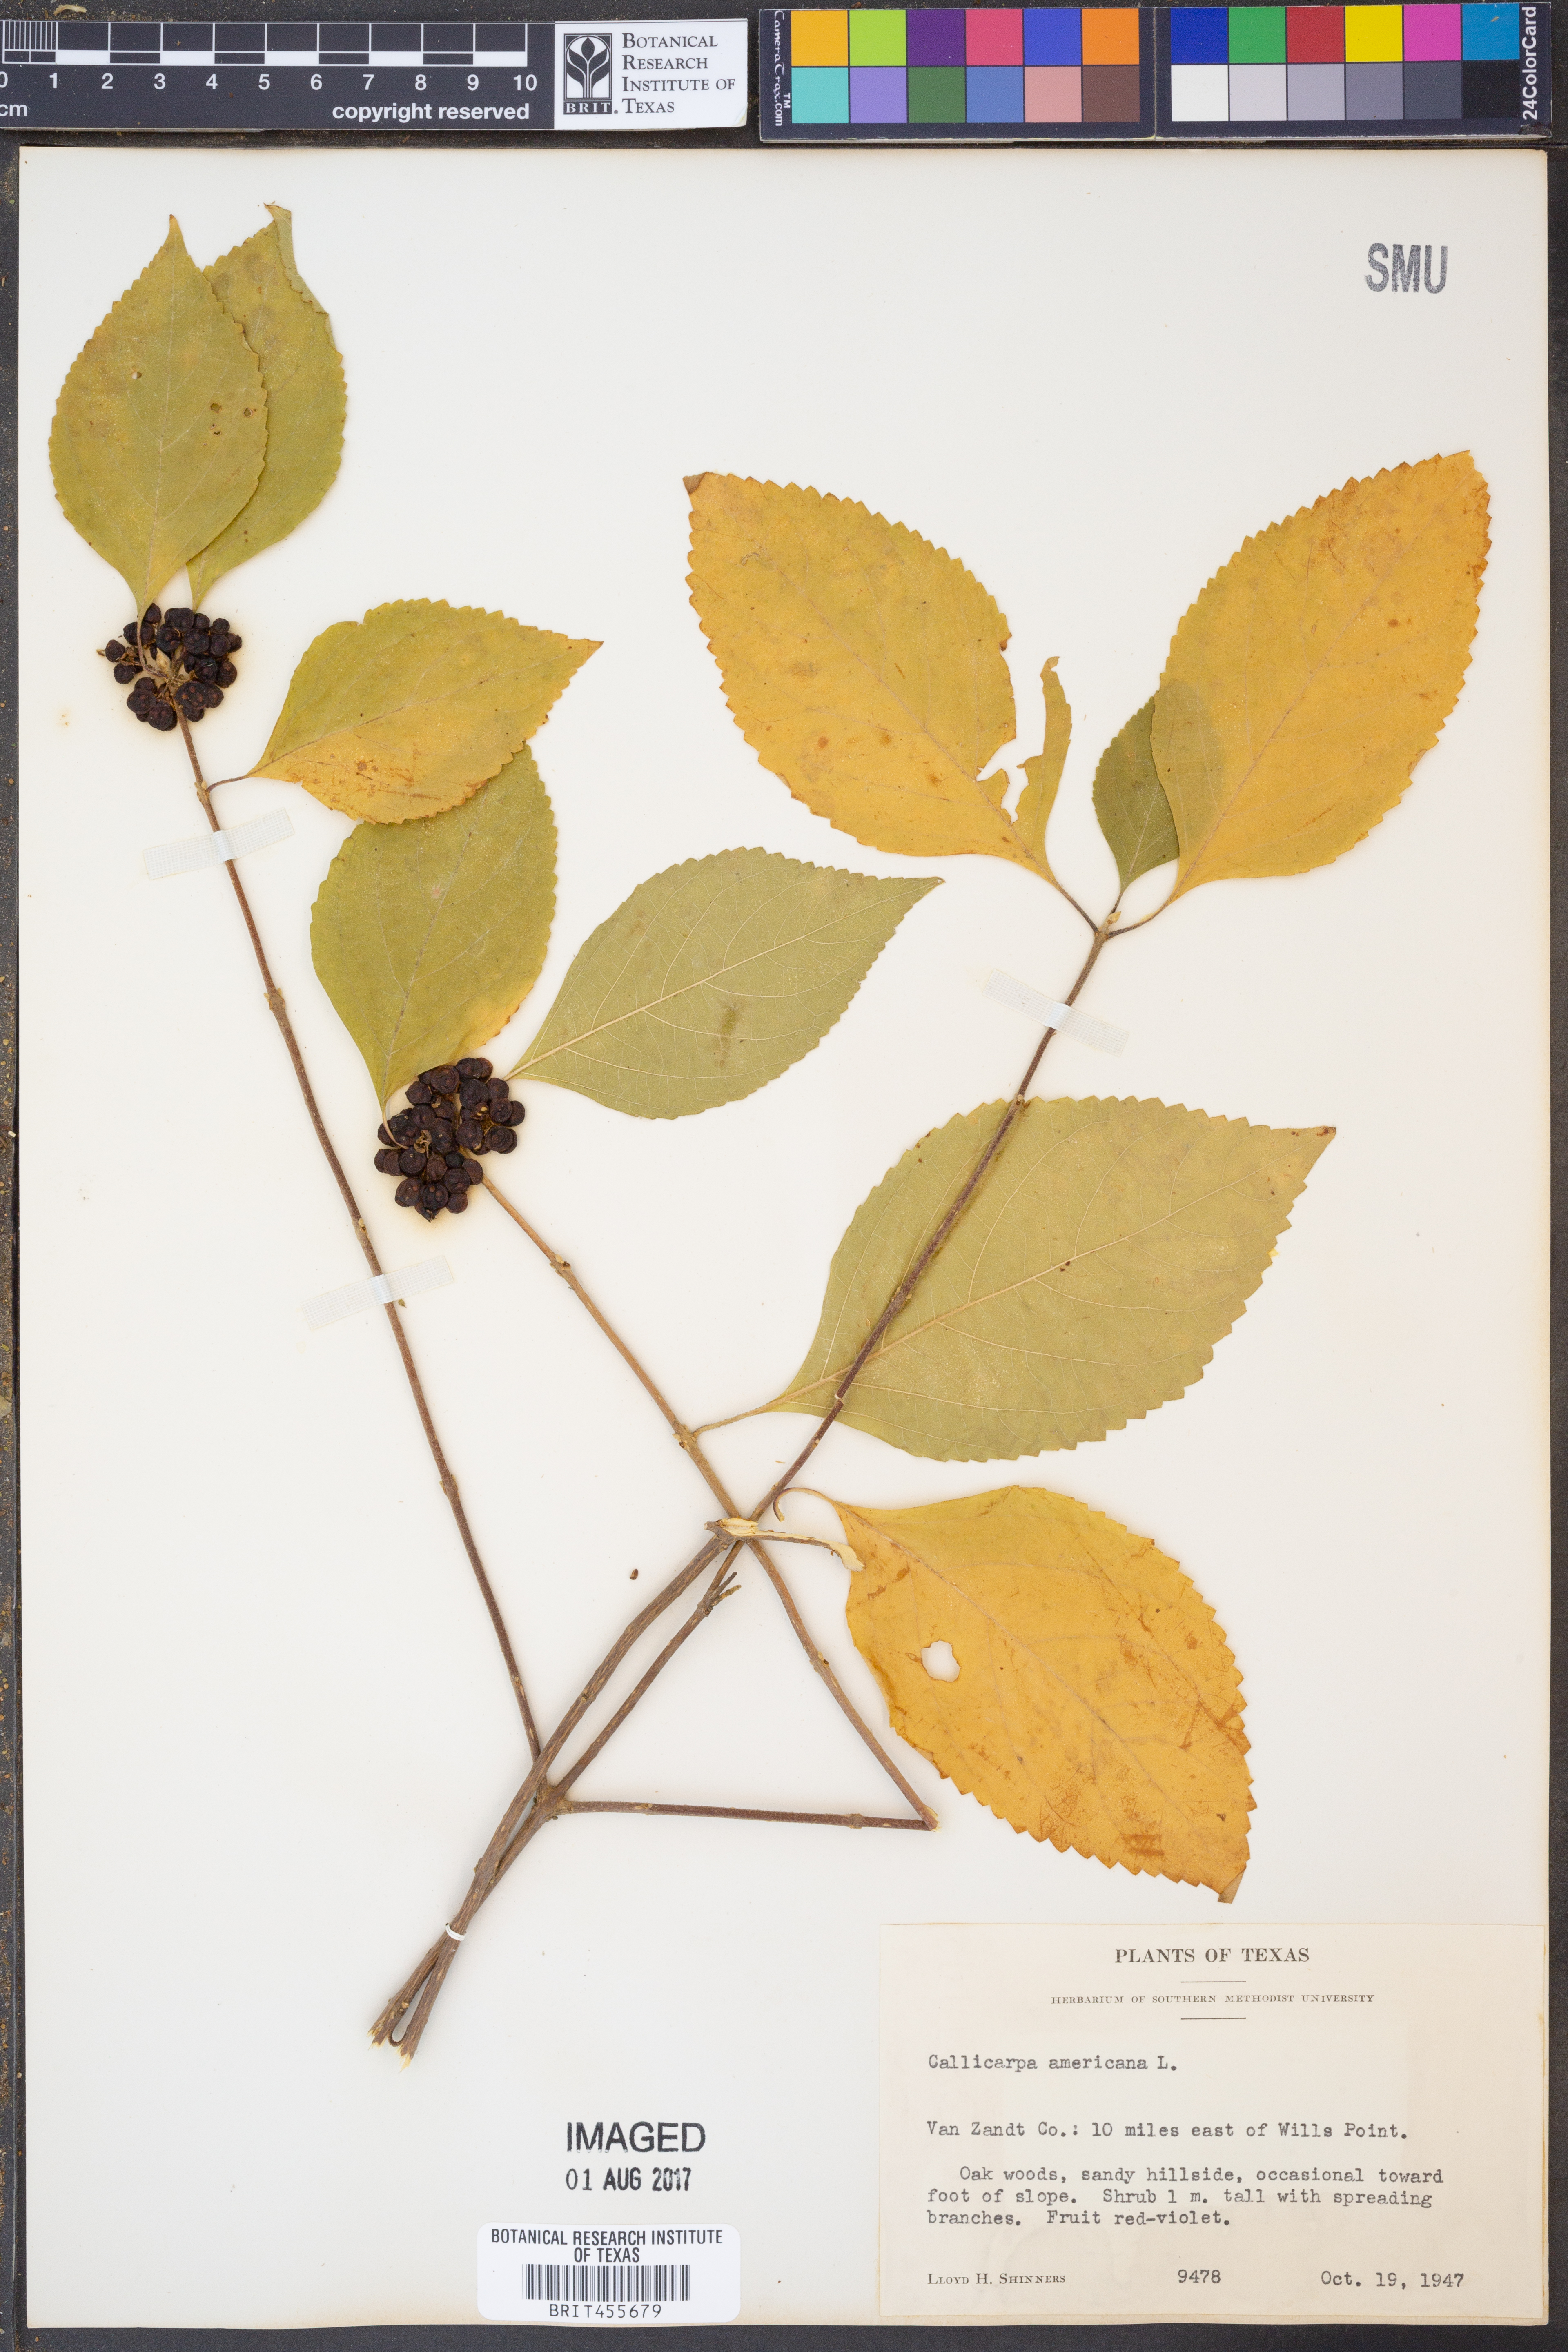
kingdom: Plantae
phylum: Tracheophyta
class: Magnoliopsida
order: Lamiales
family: Lamiaceae
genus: Callicarpa
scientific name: Callicarpa americana
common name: American beautyberry
